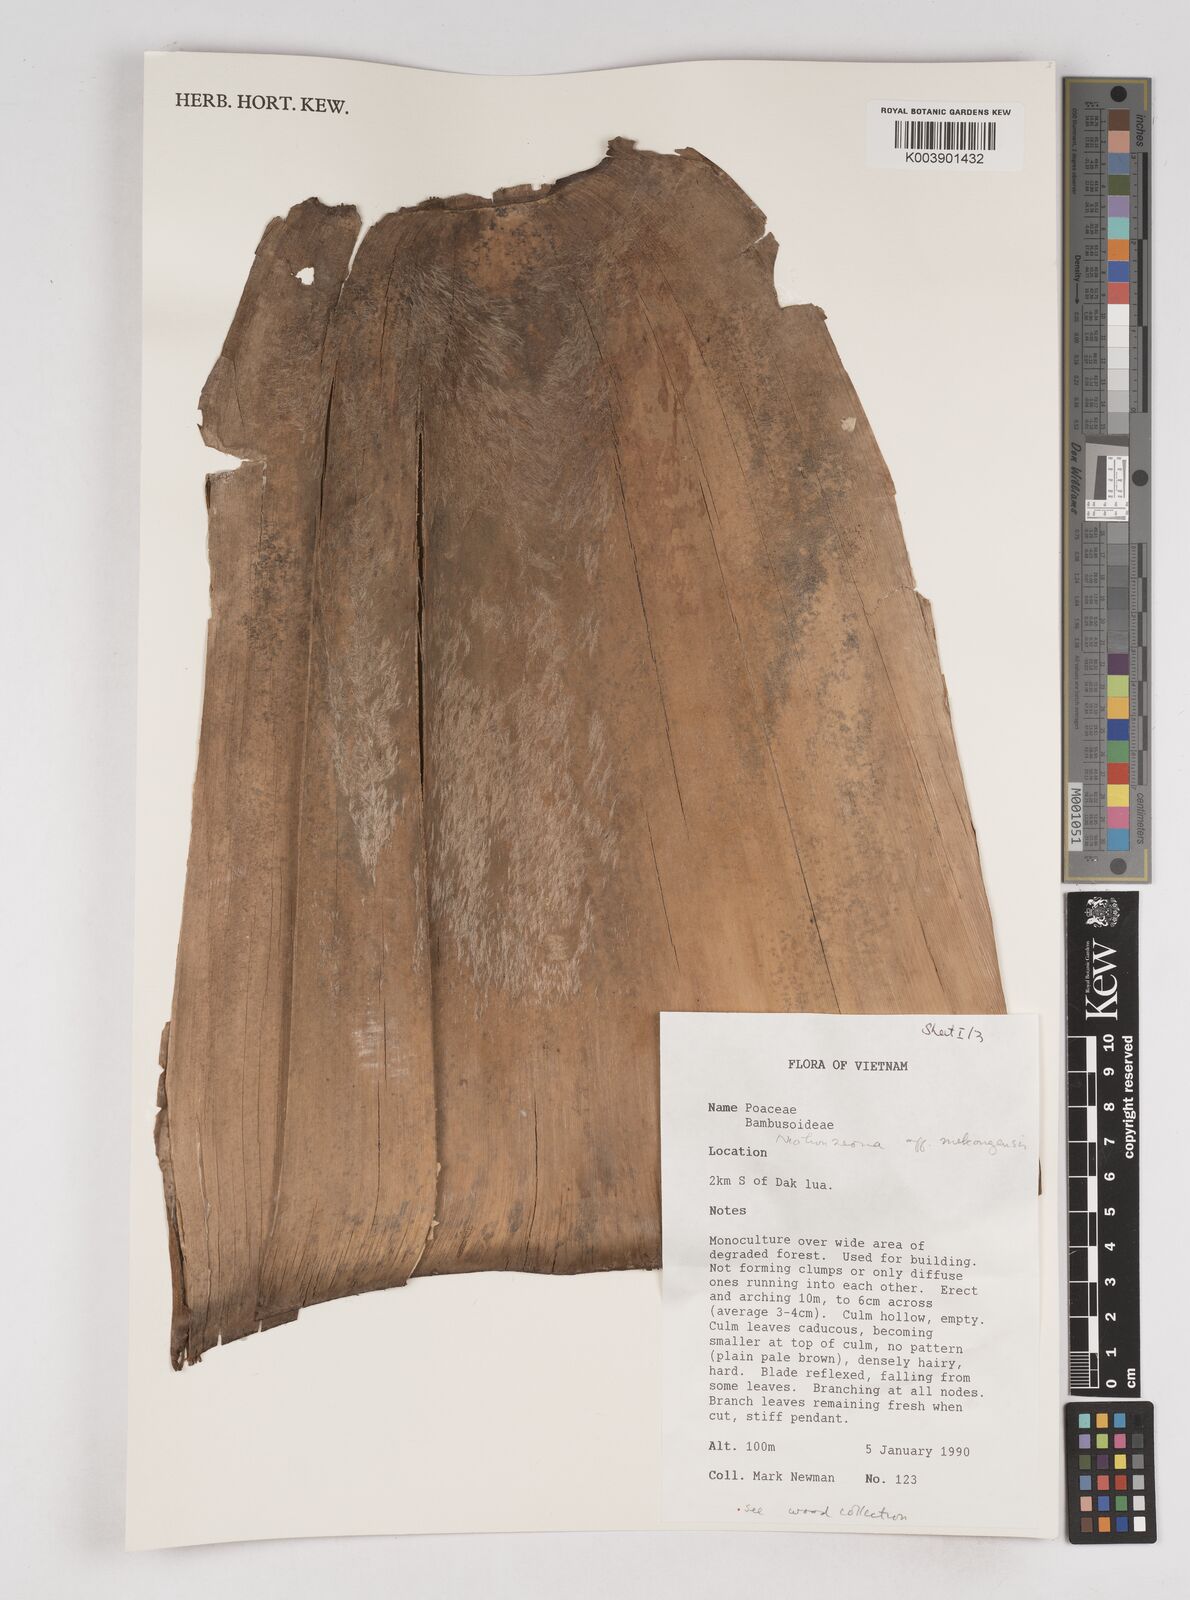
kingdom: Plantae
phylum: Tracheophyta
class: Liliopsida
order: Poales
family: Poaceae
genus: Schizostachyum
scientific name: Schizostachyum
